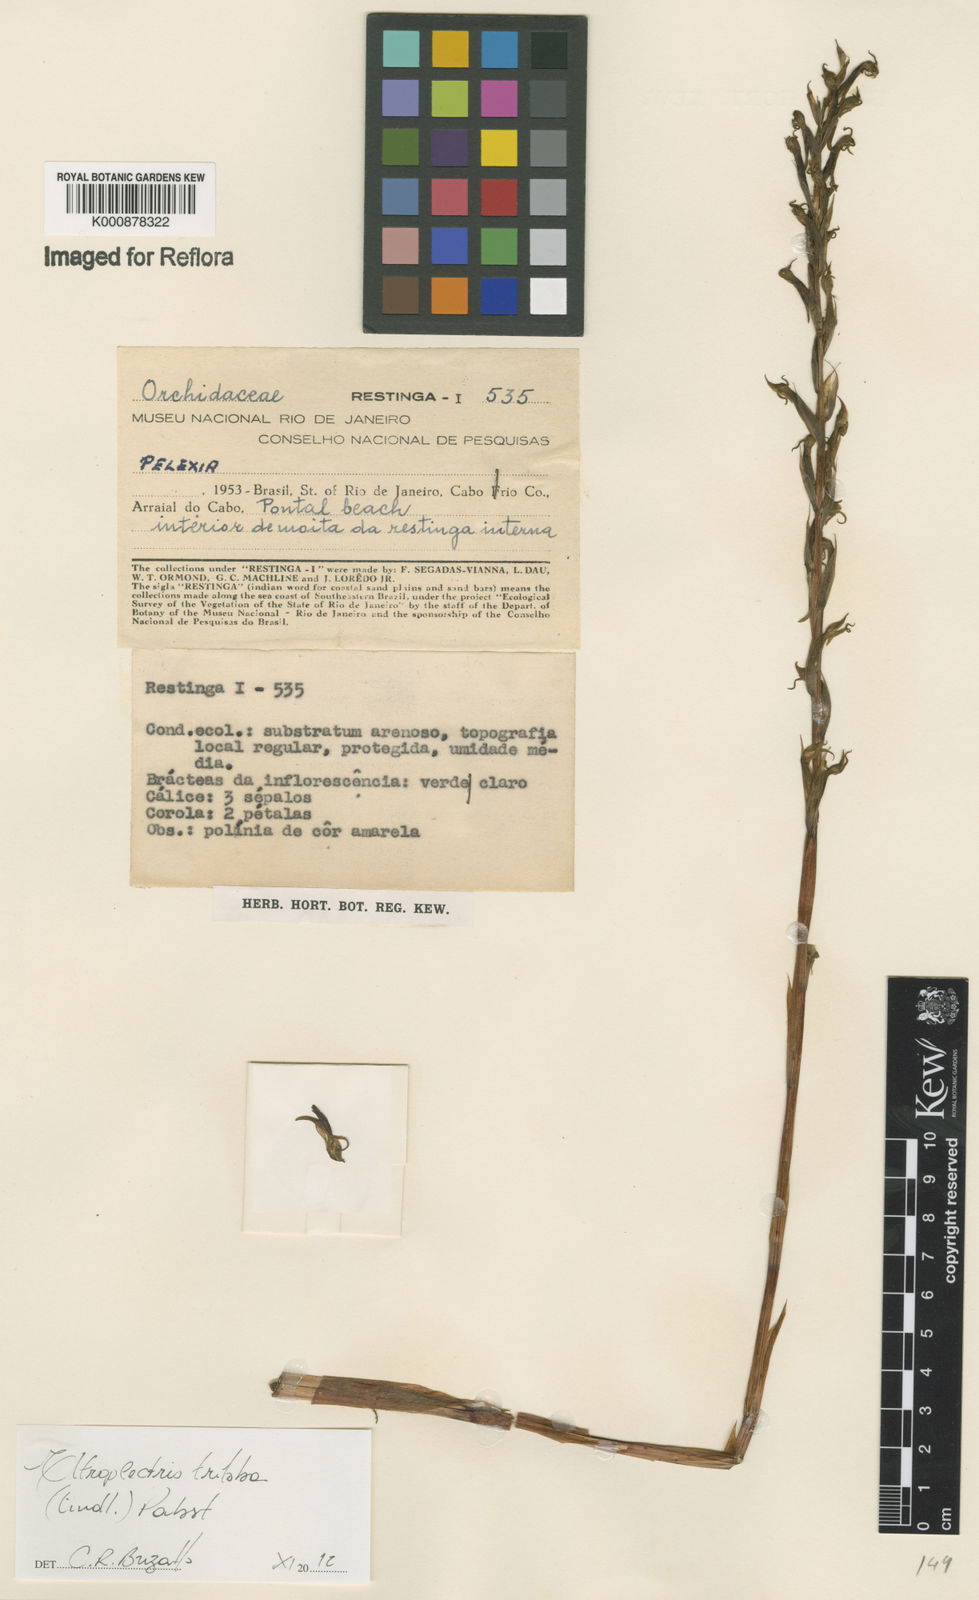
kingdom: Plantae
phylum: Tracheophyta
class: Liliopsida
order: Asparagales
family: Orchidaceae
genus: Eltroplectris
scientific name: Eltroplectris triloba
